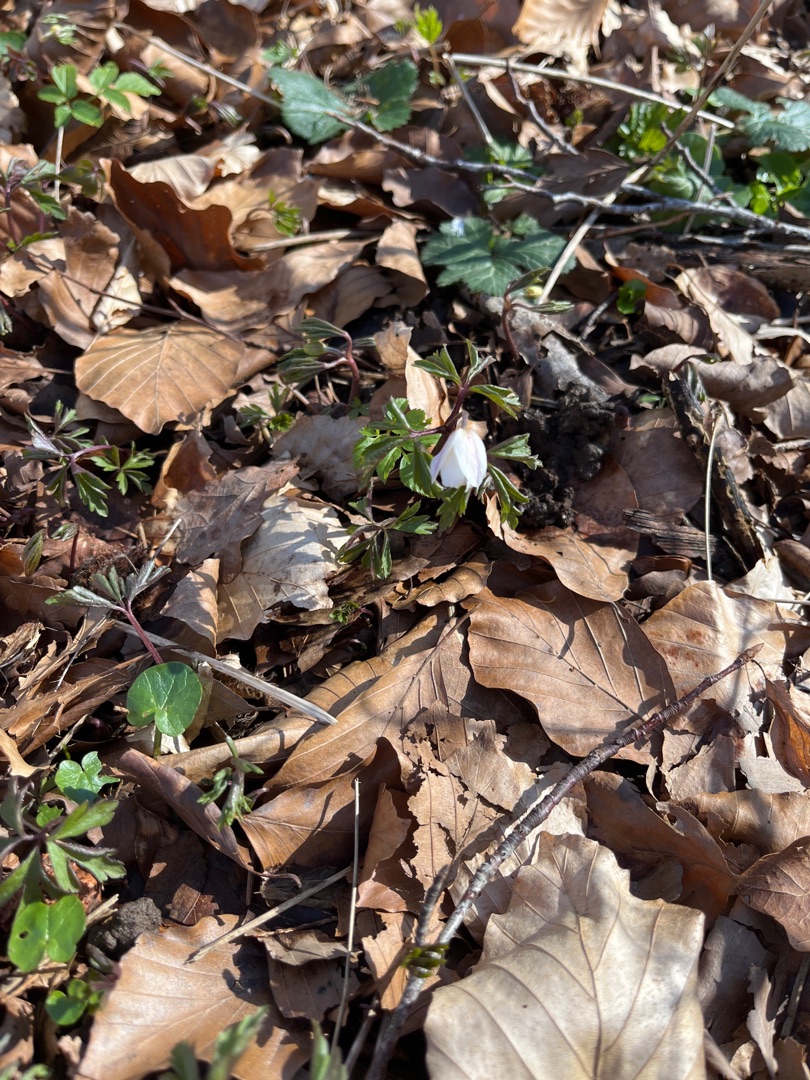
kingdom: Plantae
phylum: Tracheophyta
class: Magnoliopsida
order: Ranunculales
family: Ranunculaceae
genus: Anemone
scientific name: Anemone nemorosa
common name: Hvid anemone
